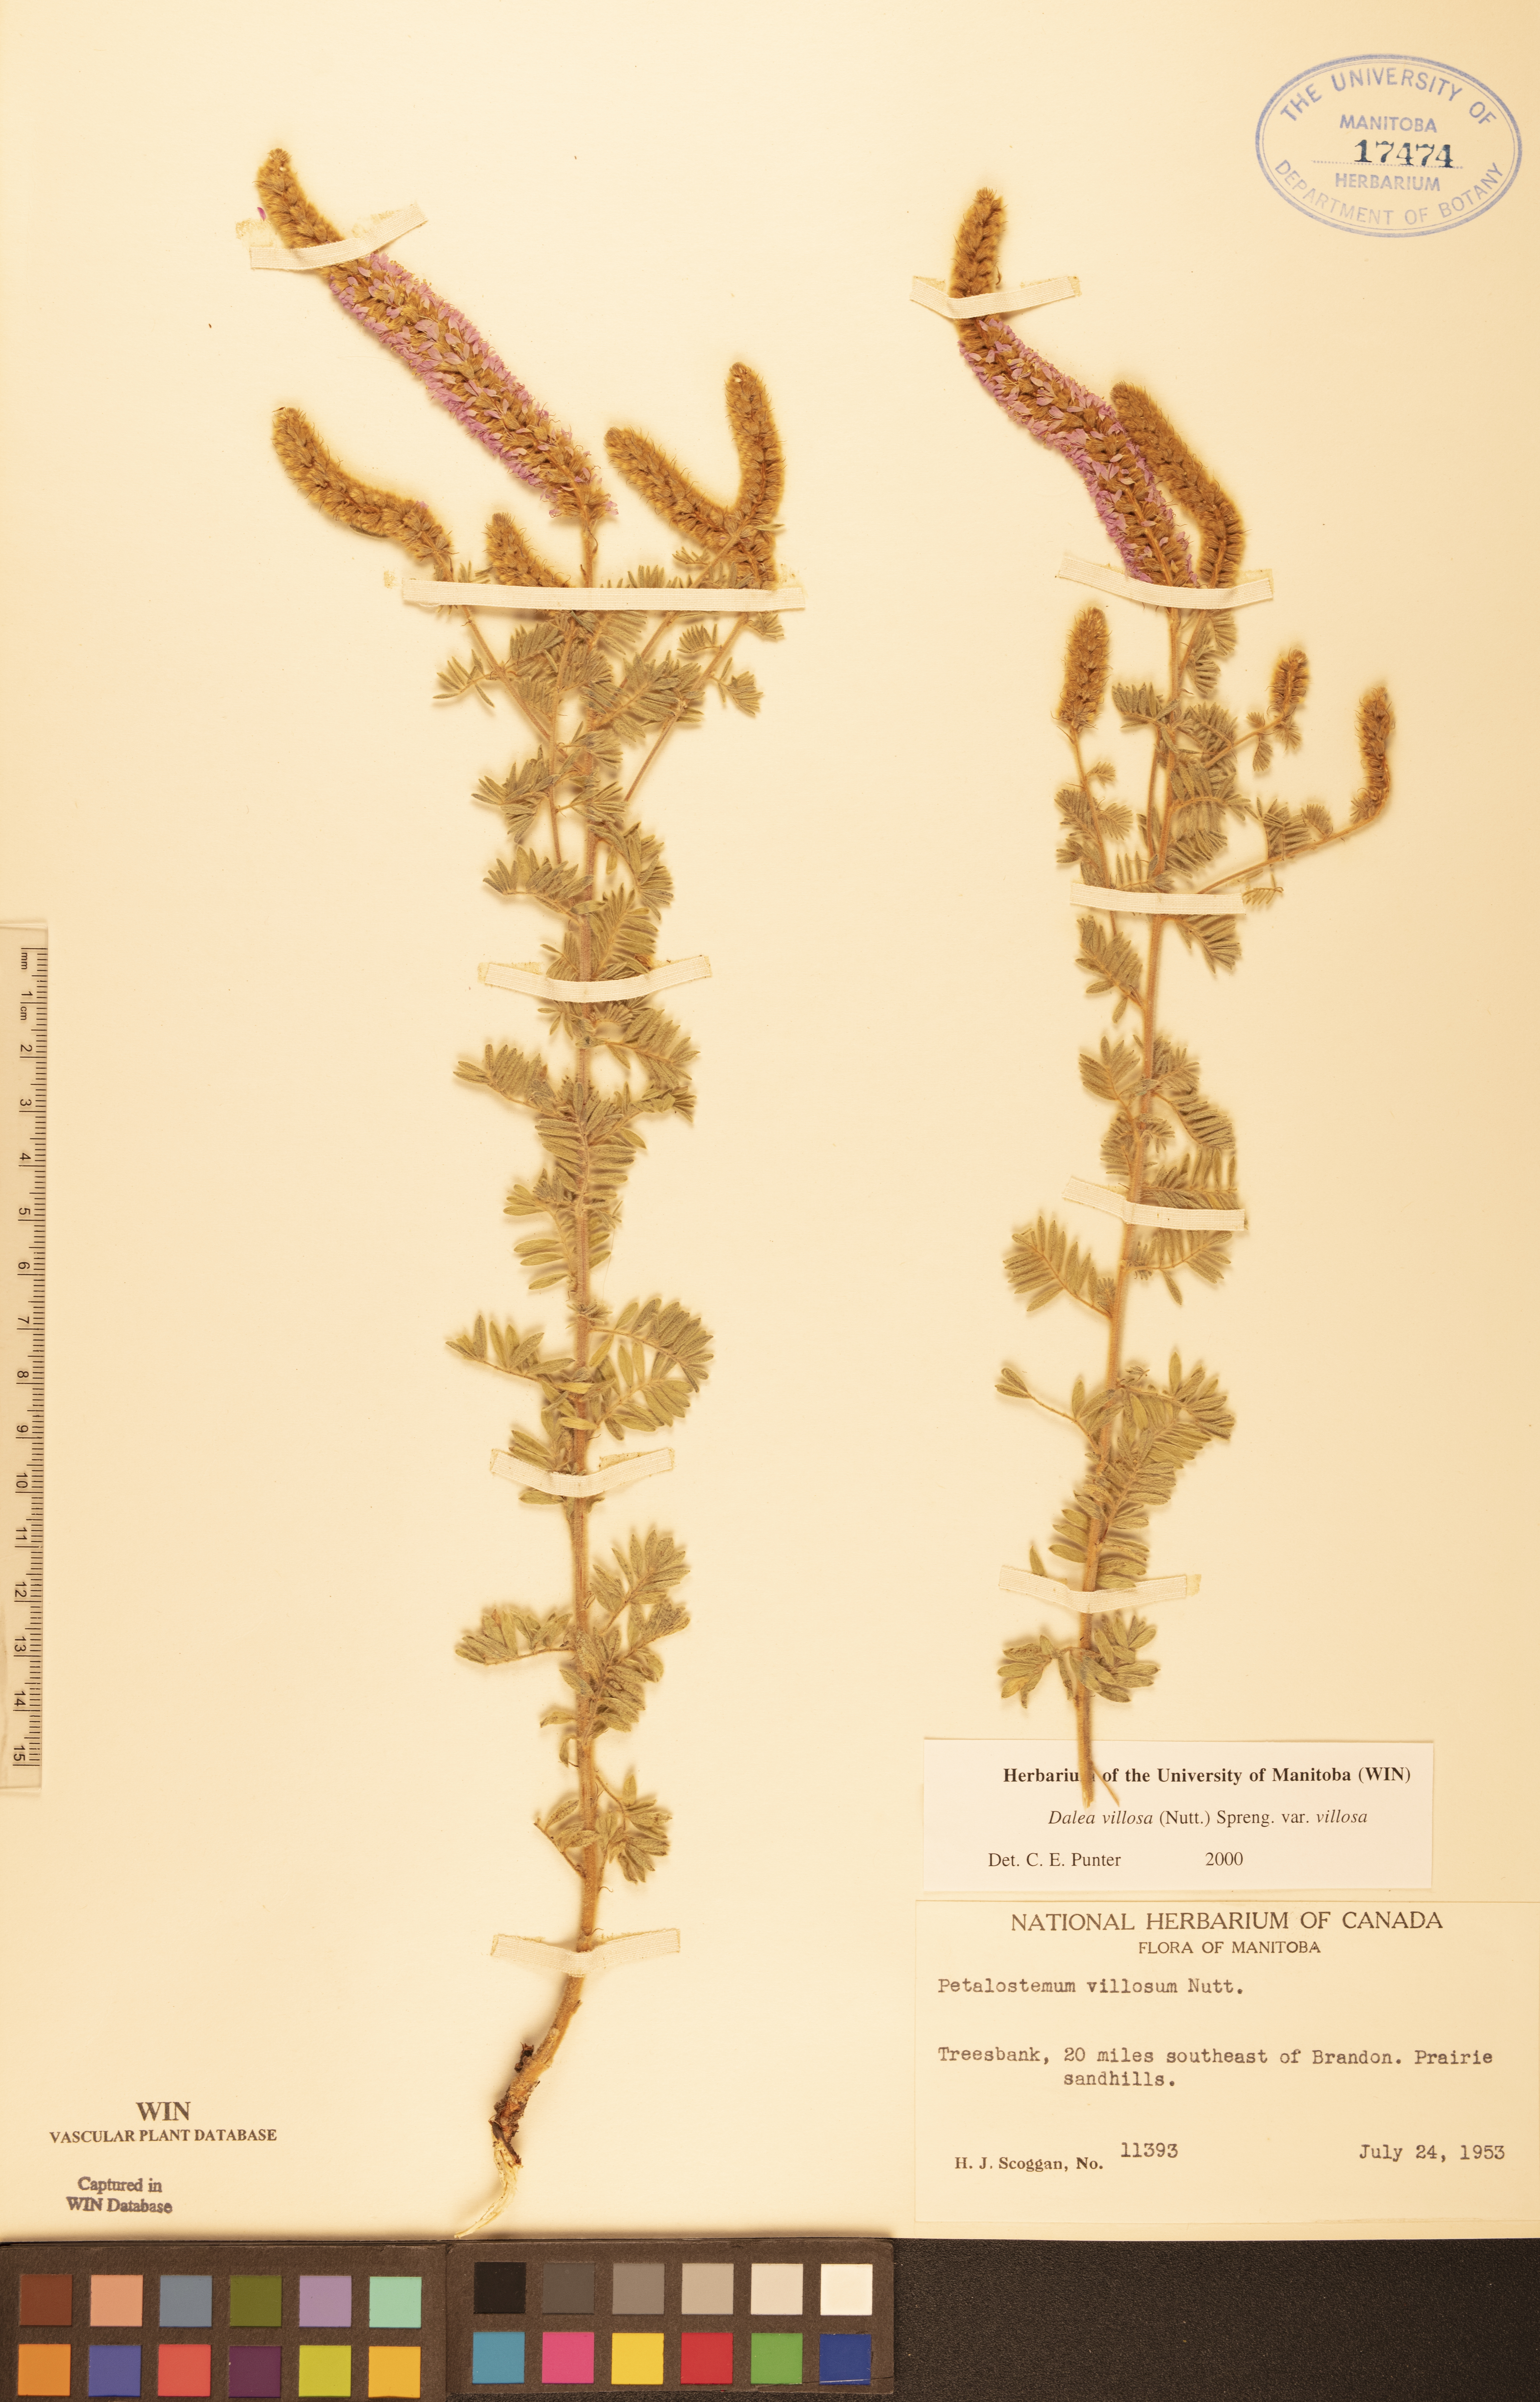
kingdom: Plantae
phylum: Tracheophyta
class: Magnoliopsida
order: Fabales
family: Fabaceae
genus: Dalea
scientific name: Dalea villosa
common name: Silky prairie-clover
